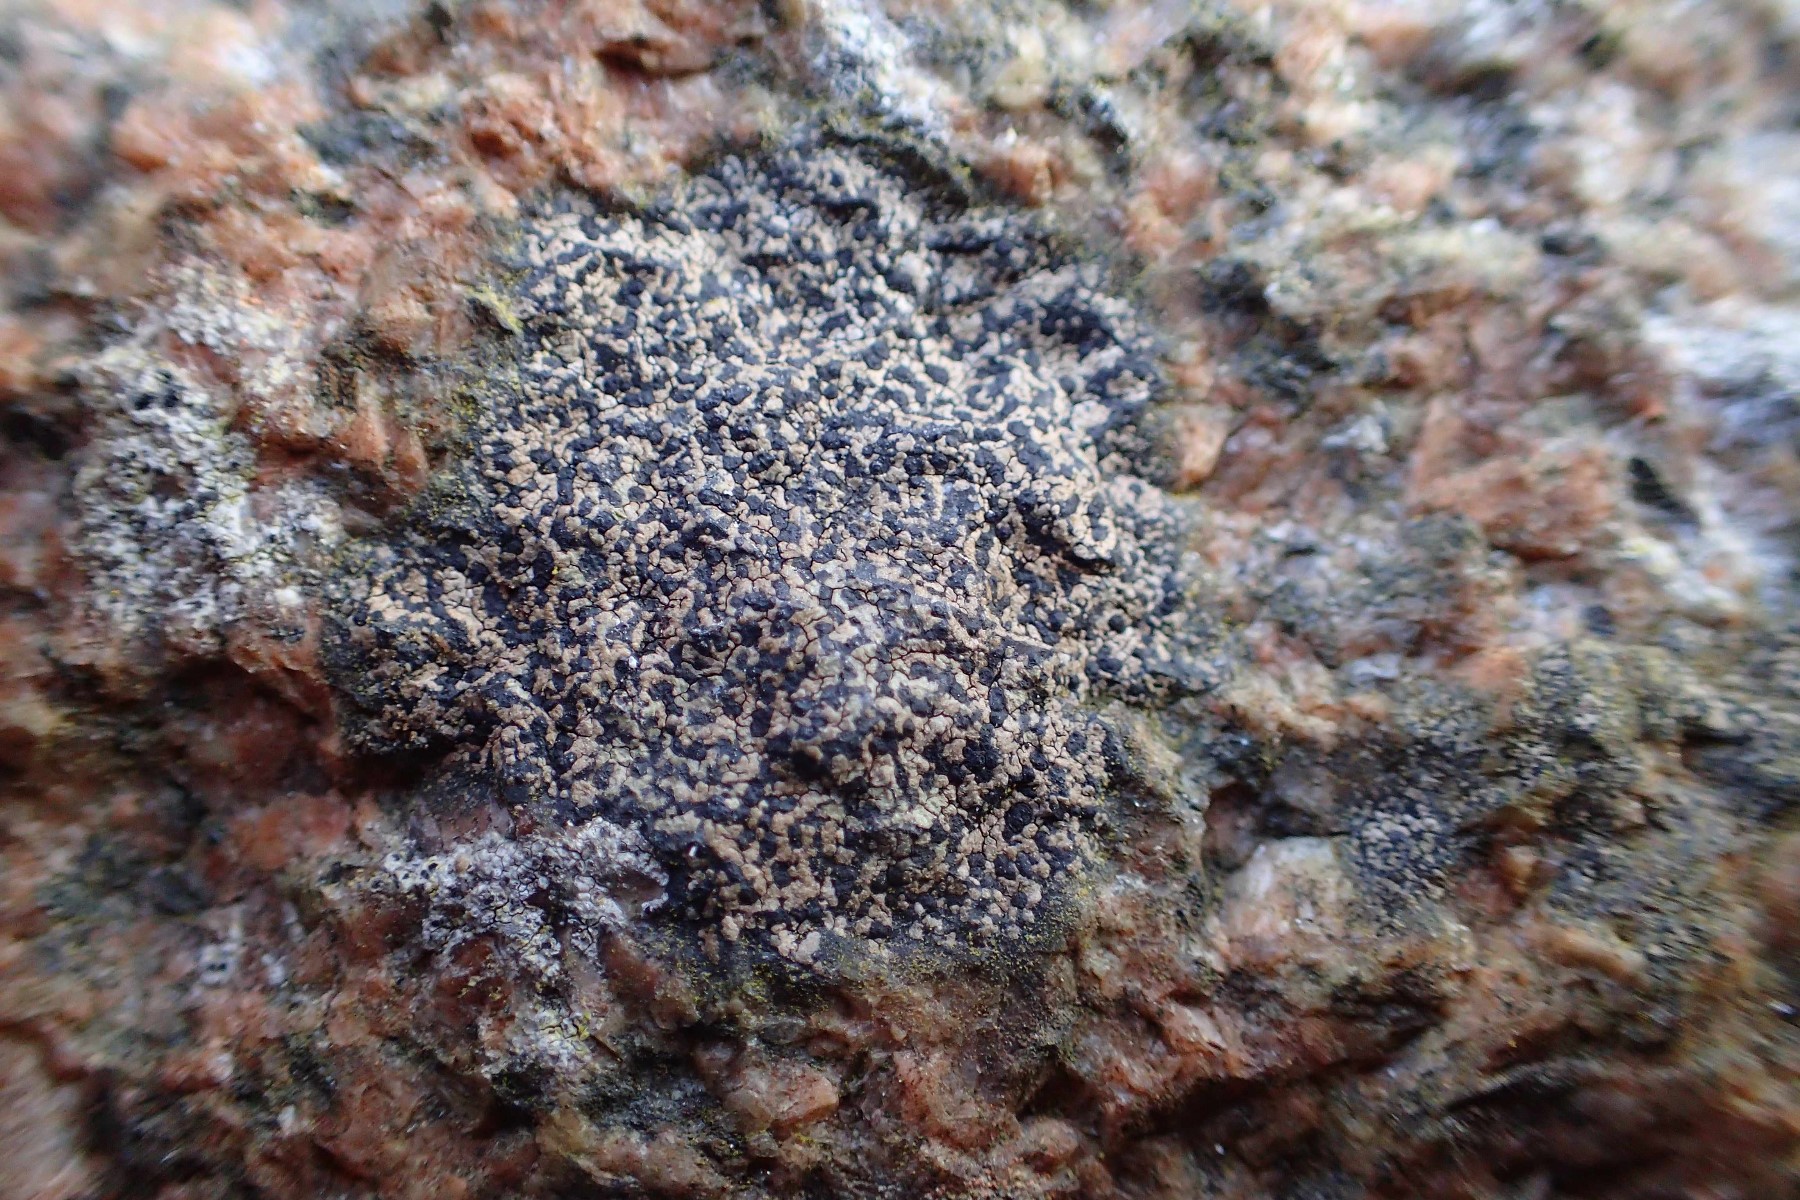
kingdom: Fungi
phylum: Ascomycota
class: Lecanoromycetes
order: Rhizocarpales
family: Rhizocarpaceae
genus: Rhizocarpon
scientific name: Rhizocarpon reductum
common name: mørk landkortlav
